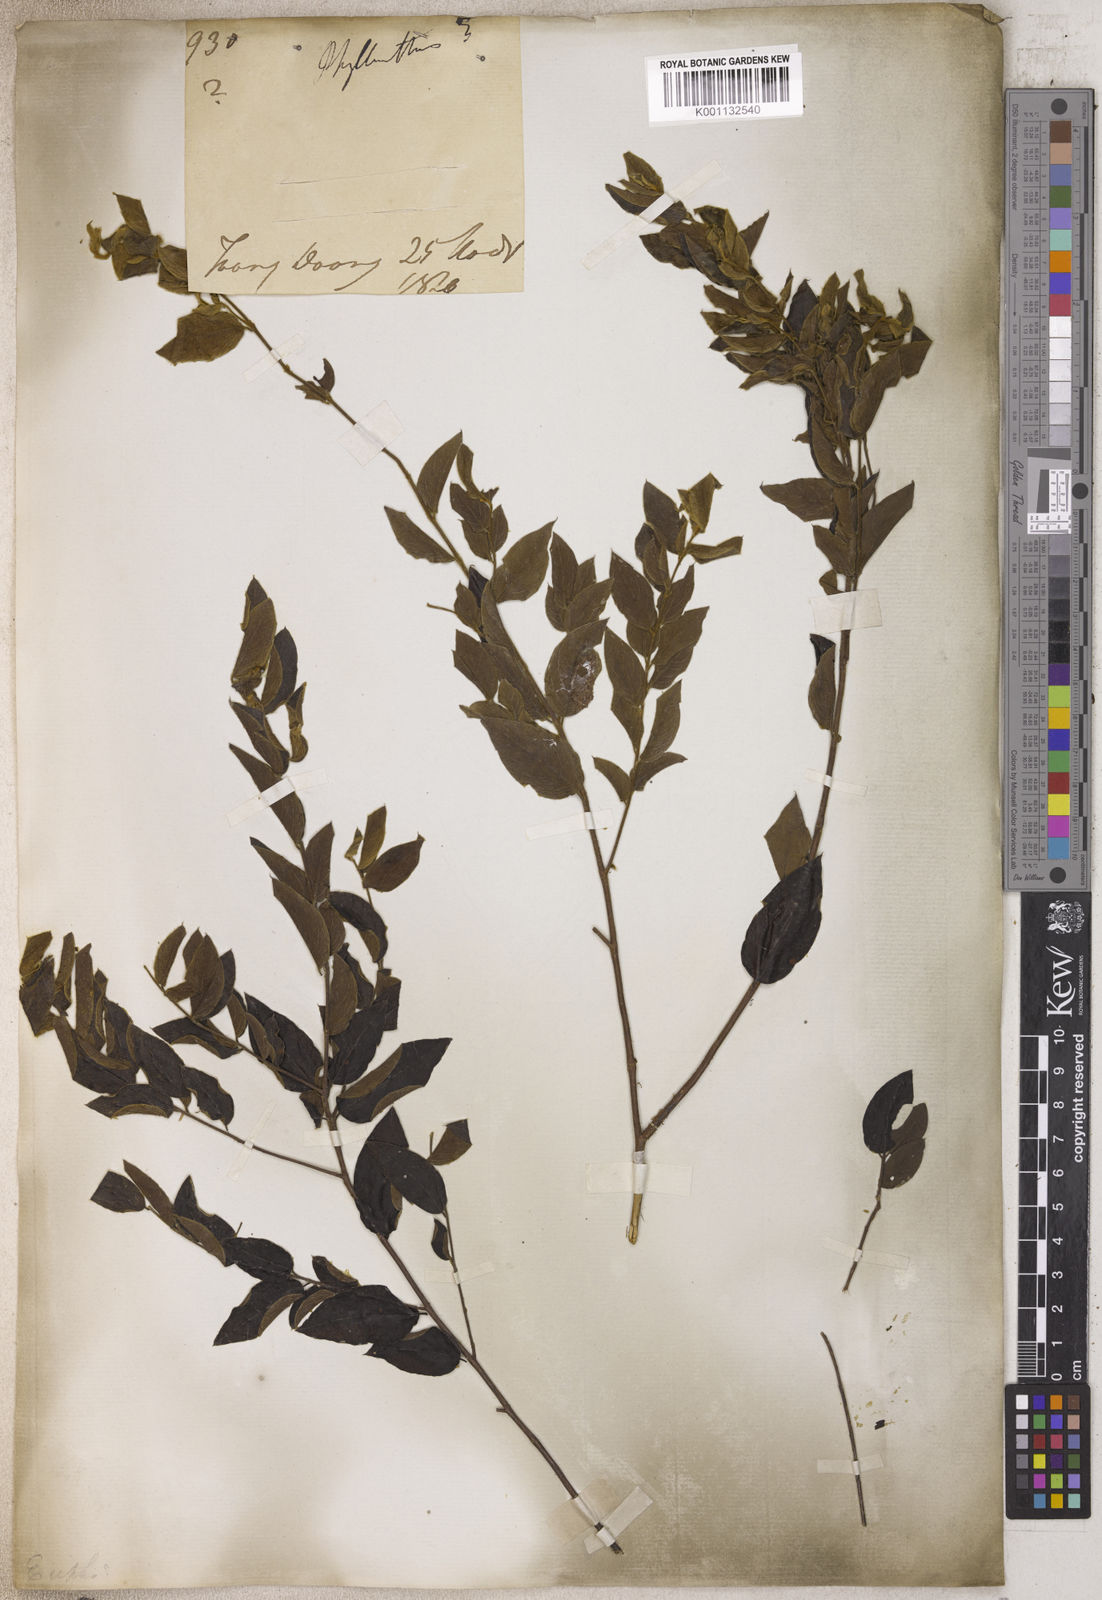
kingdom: Plantae
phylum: Tracheophyta
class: Magnoliopsida
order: Malpighiales
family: Phyllanthaceae
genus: Phyllanthus
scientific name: Phyllanthus
